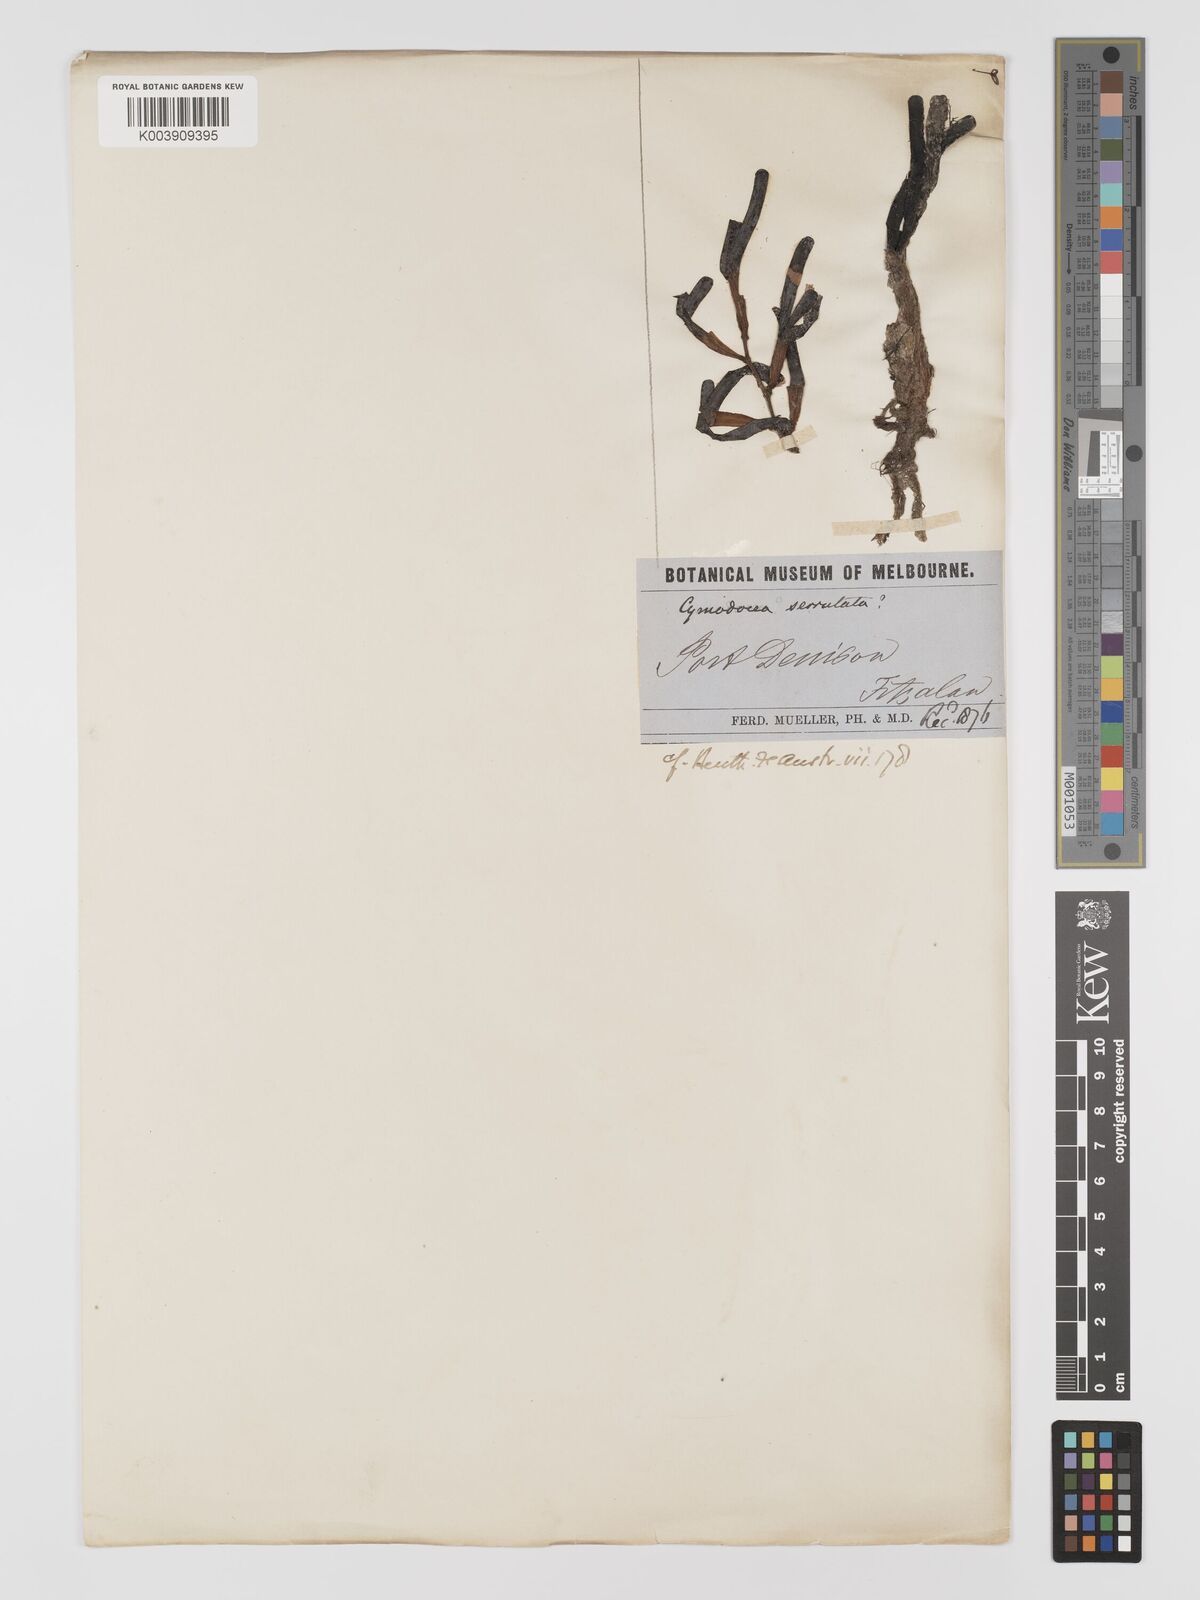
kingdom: Plantae
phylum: Tracheophyta
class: Liliopsida
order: Alismatales
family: Cymodoceaceae
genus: Oceana
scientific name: Oceana serrulata
